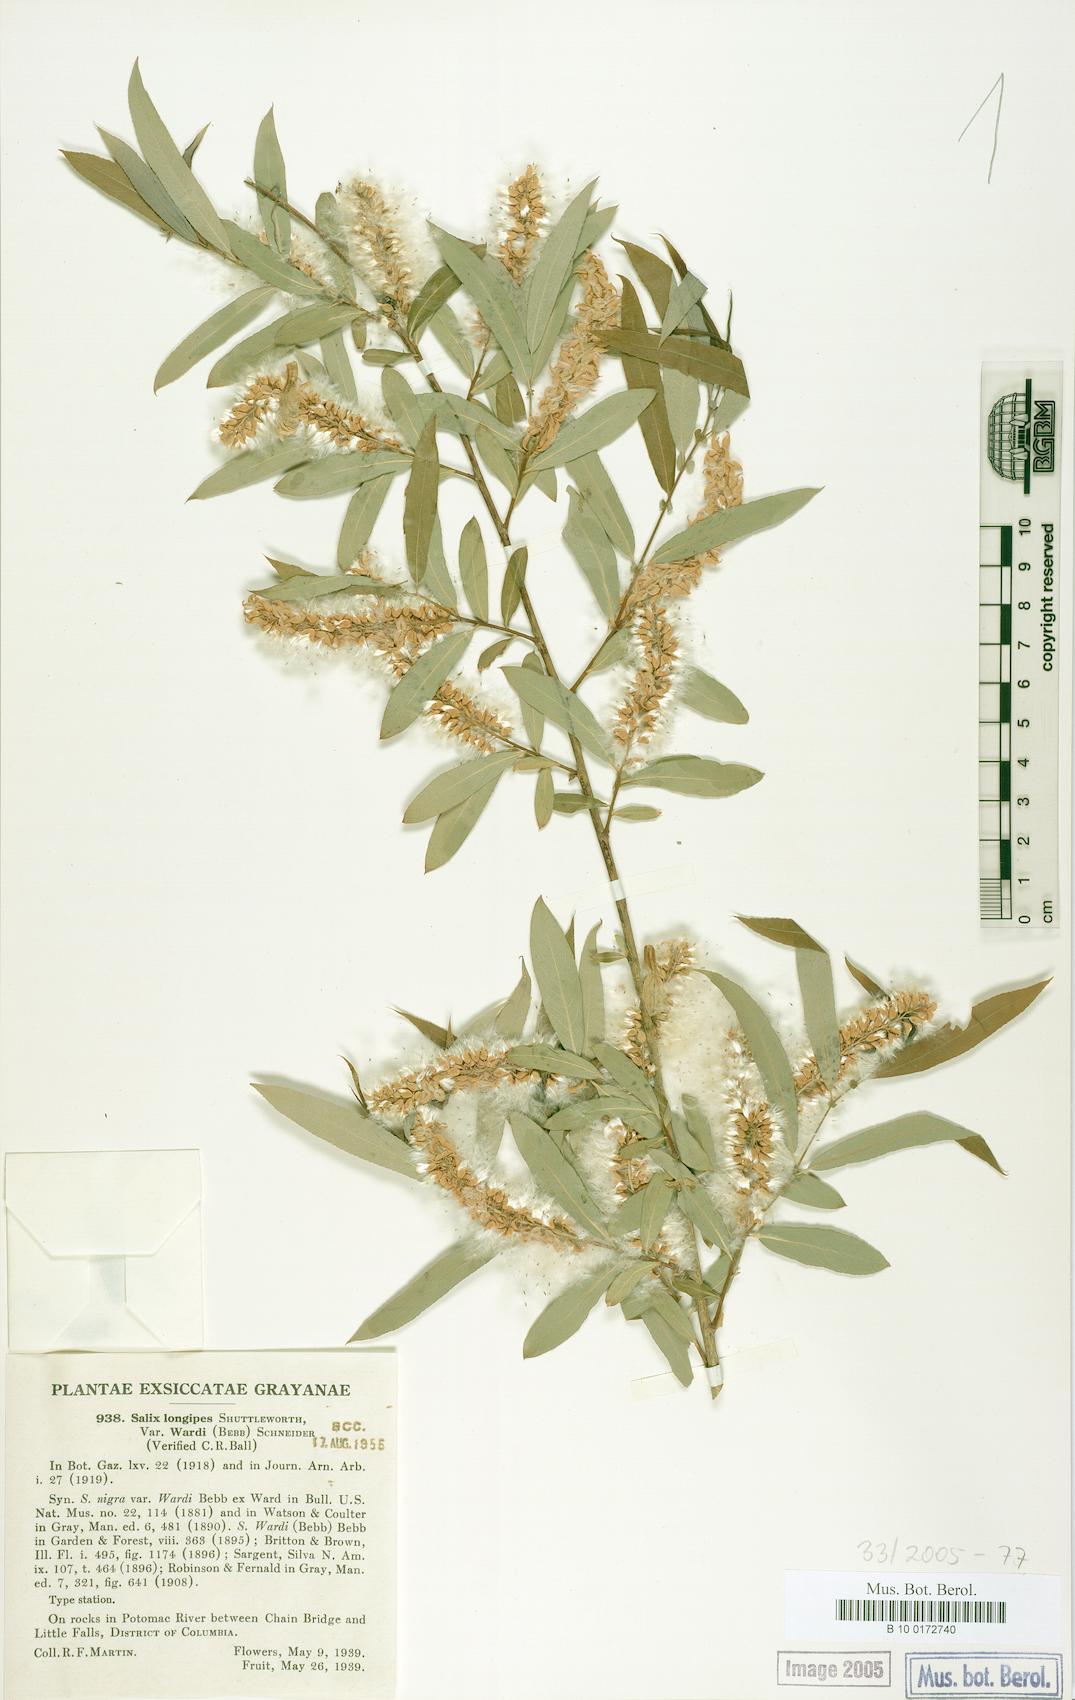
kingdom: Plantae
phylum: Tracheophyta
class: Magnoliopsida
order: Malpighiales
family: Salicaceae
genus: Salix
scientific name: Salix caroliniana
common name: Carolina willow
